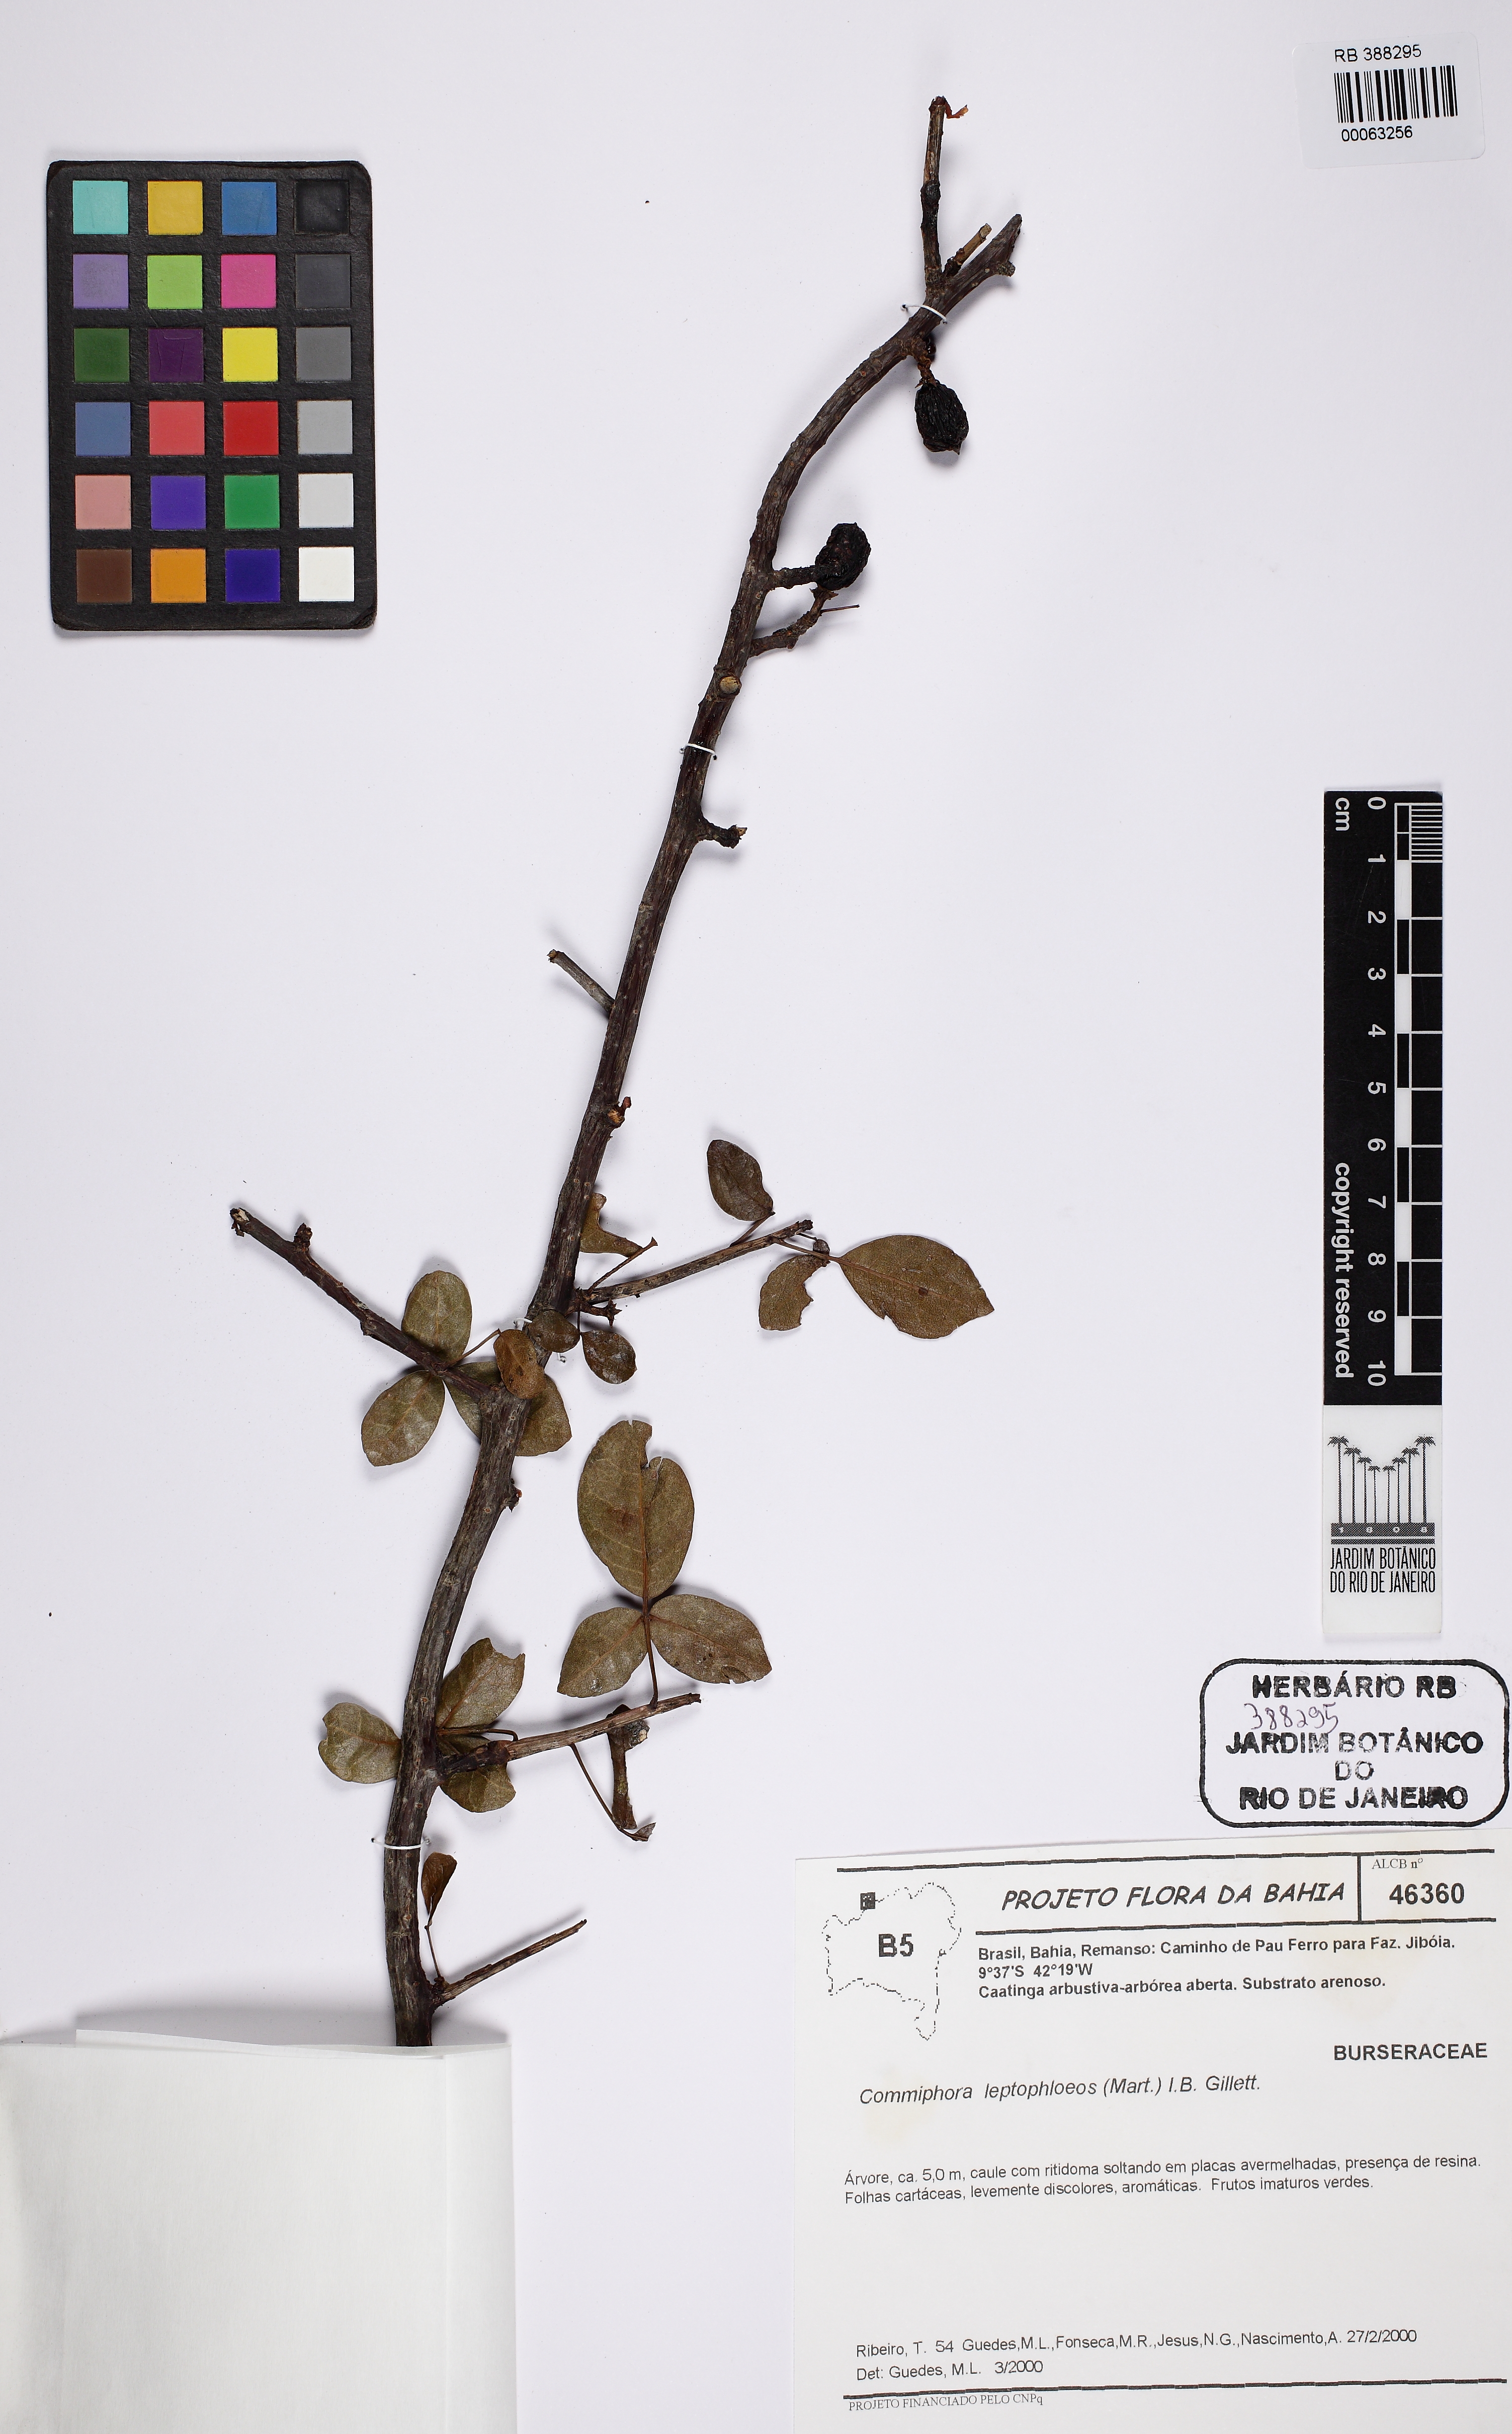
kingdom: Plantae
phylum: Tracheophyta
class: Magnoliopsida
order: Sapindales
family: Burseraceae
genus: Bursera
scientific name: Bursera leptophloeos
